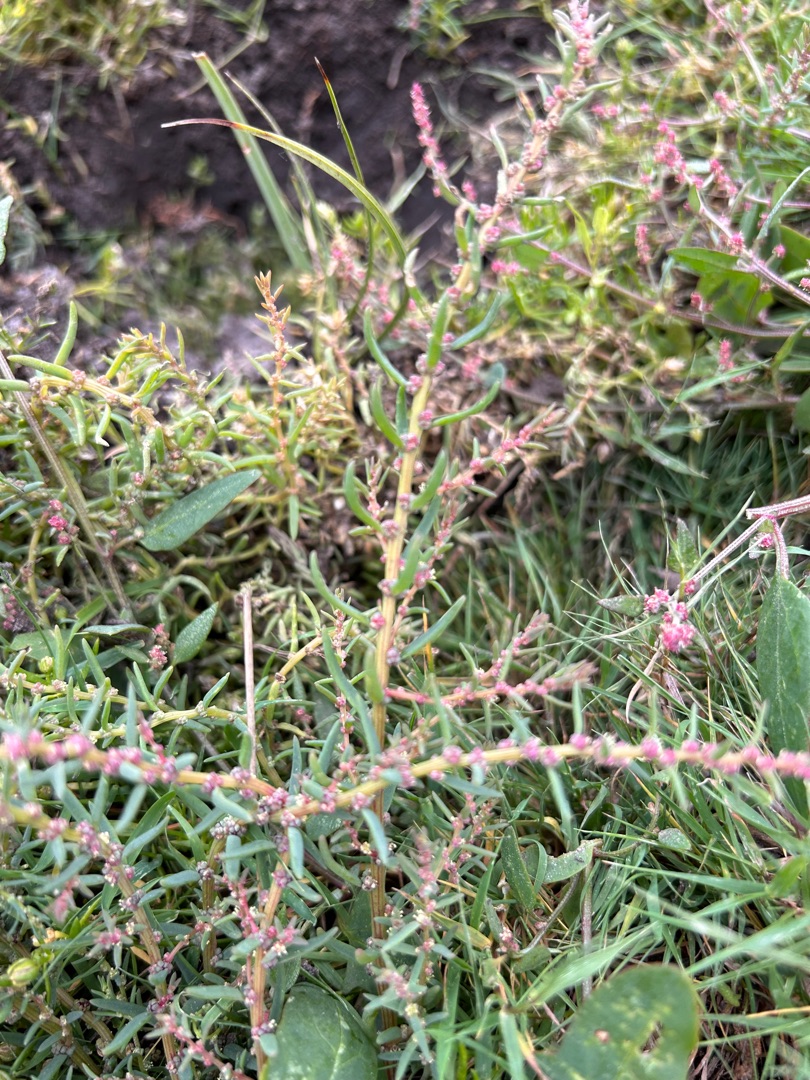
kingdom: Plantae
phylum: Tracheophyta
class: Magnoliopsida
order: Caryophyllales
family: Amaranthaceae
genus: Suaeda
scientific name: Suaeda maritima
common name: Strandgåsefod
